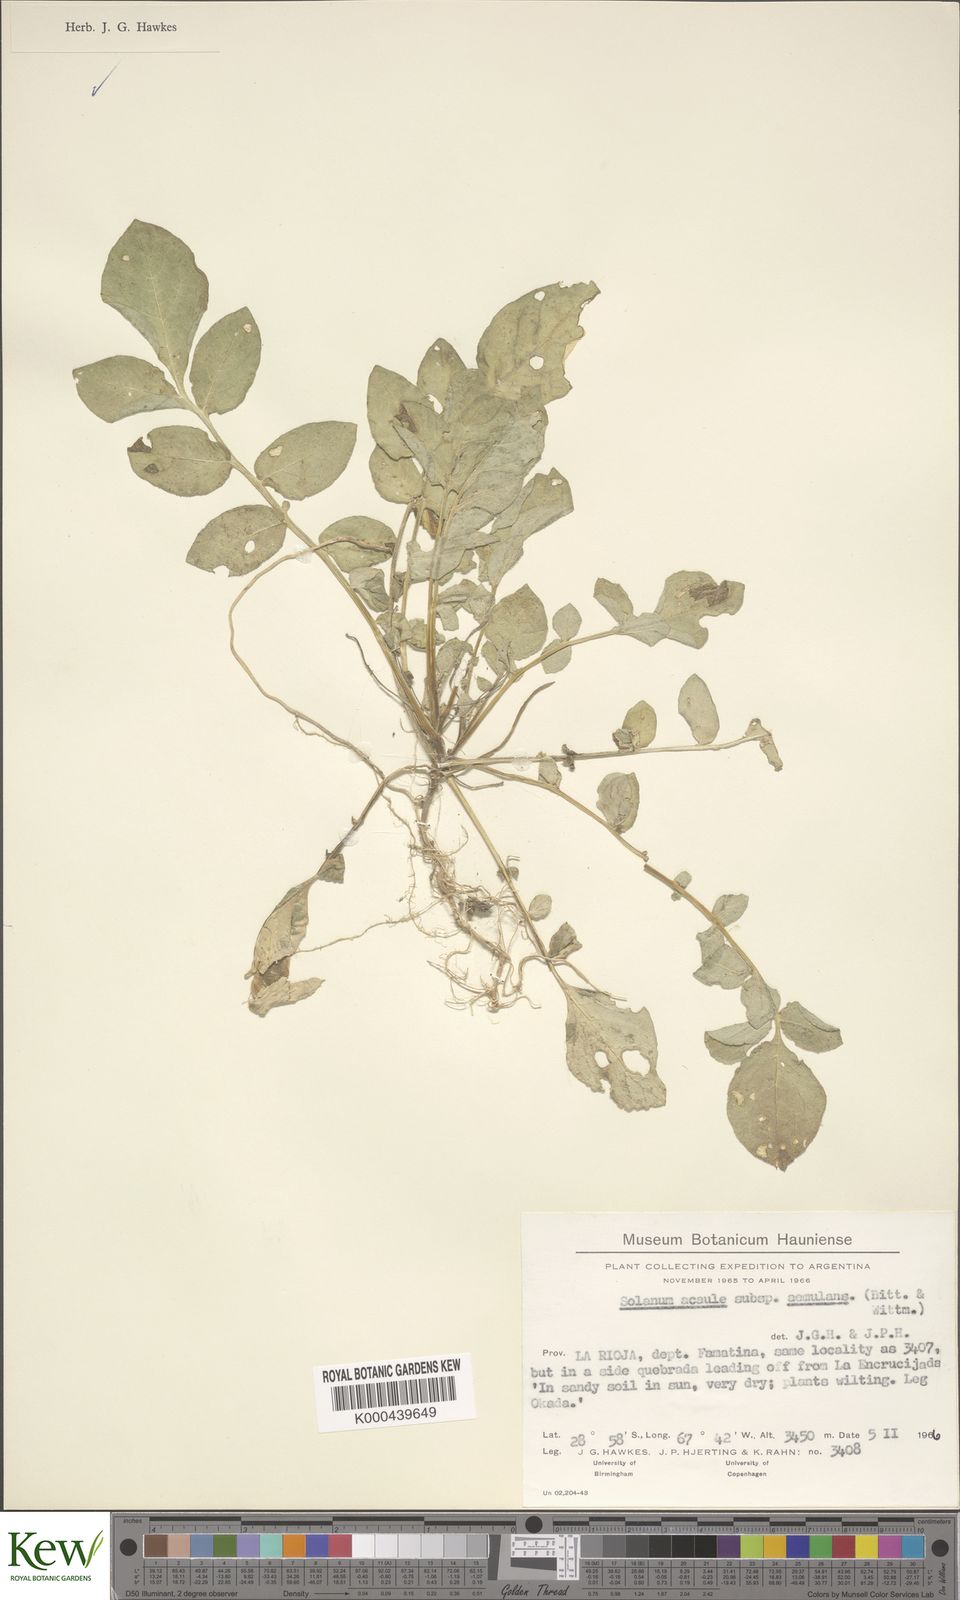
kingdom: Plantae
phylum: Tracheophyta
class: Magnoliopsida
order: Solanales
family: Solanaceae
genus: Solanum
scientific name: Solanum aemulans
